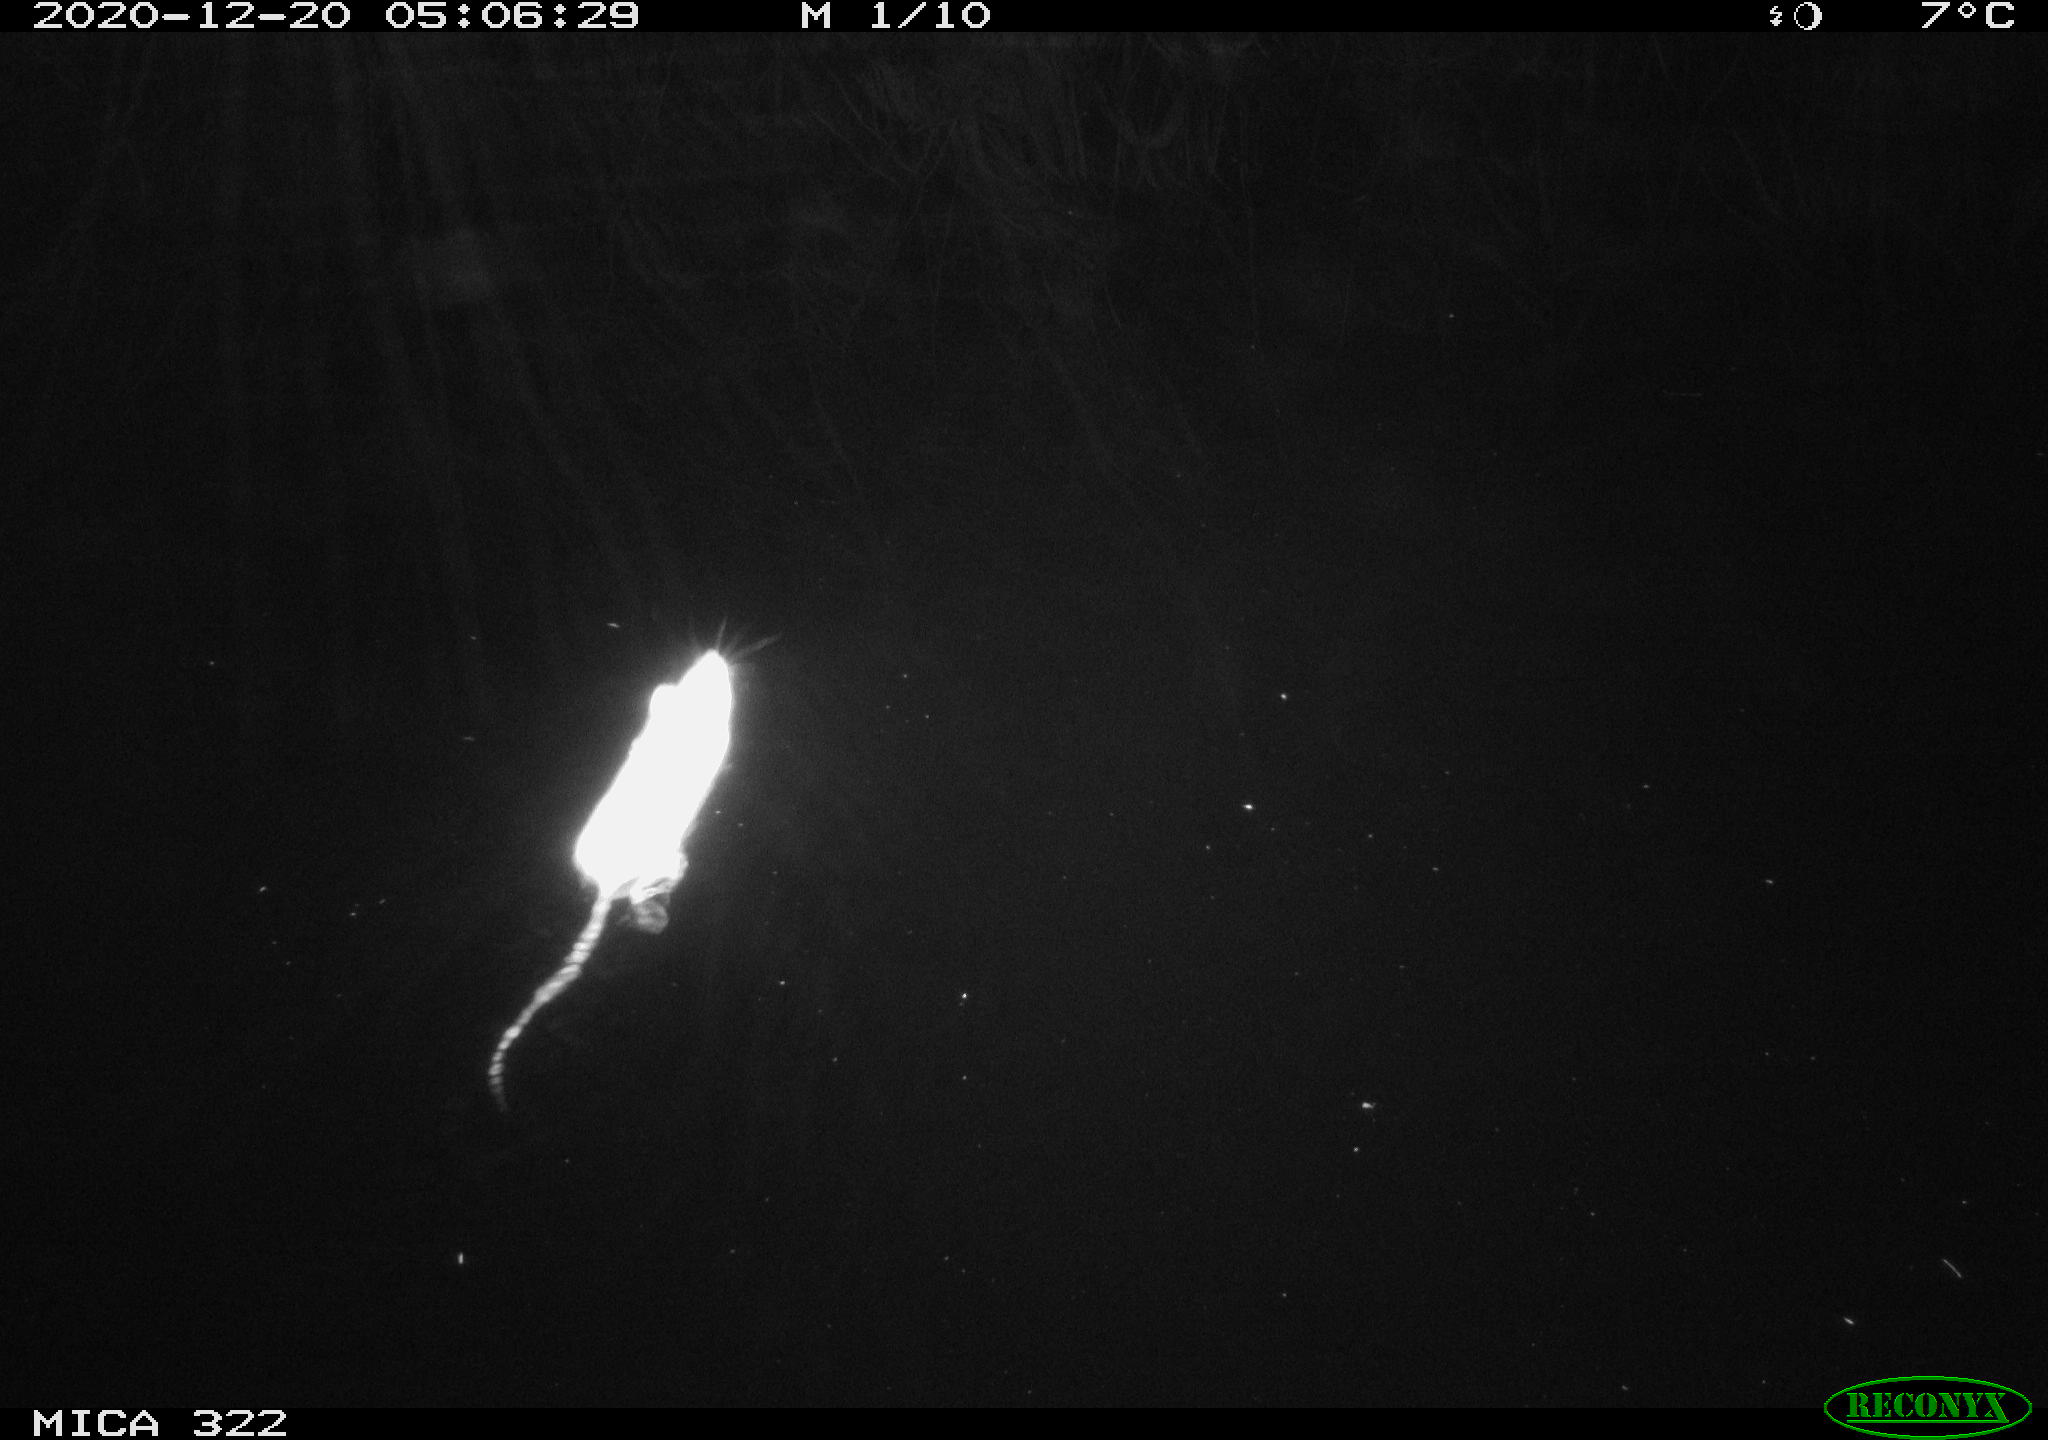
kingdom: Animalia
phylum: Chordata
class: Mammalia
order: Rodentia
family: Muridae
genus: Rattus
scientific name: Rattus norvegicus
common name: Brown rat
